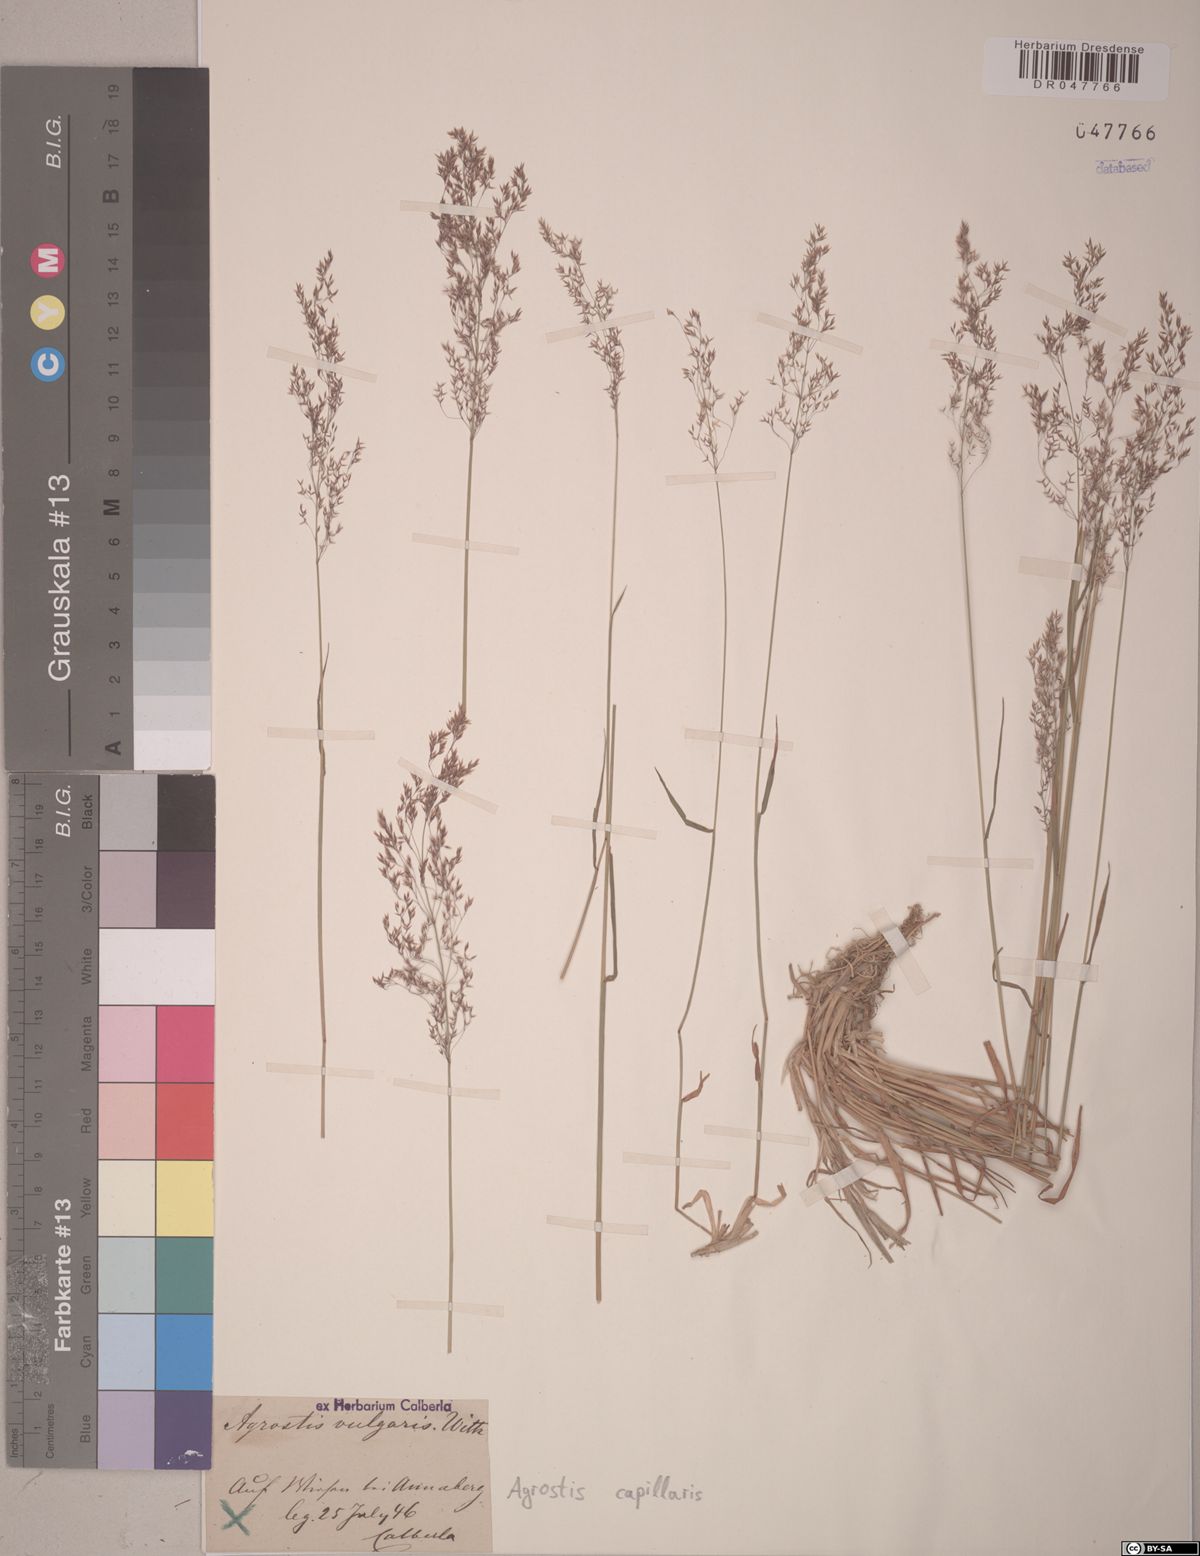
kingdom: Plantae
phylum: Tracheophyta
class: Liliopsida
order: Poales
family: Poaceae
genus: Agrostis
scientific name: Agrostis capillaris
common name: Colonial bentgrass
